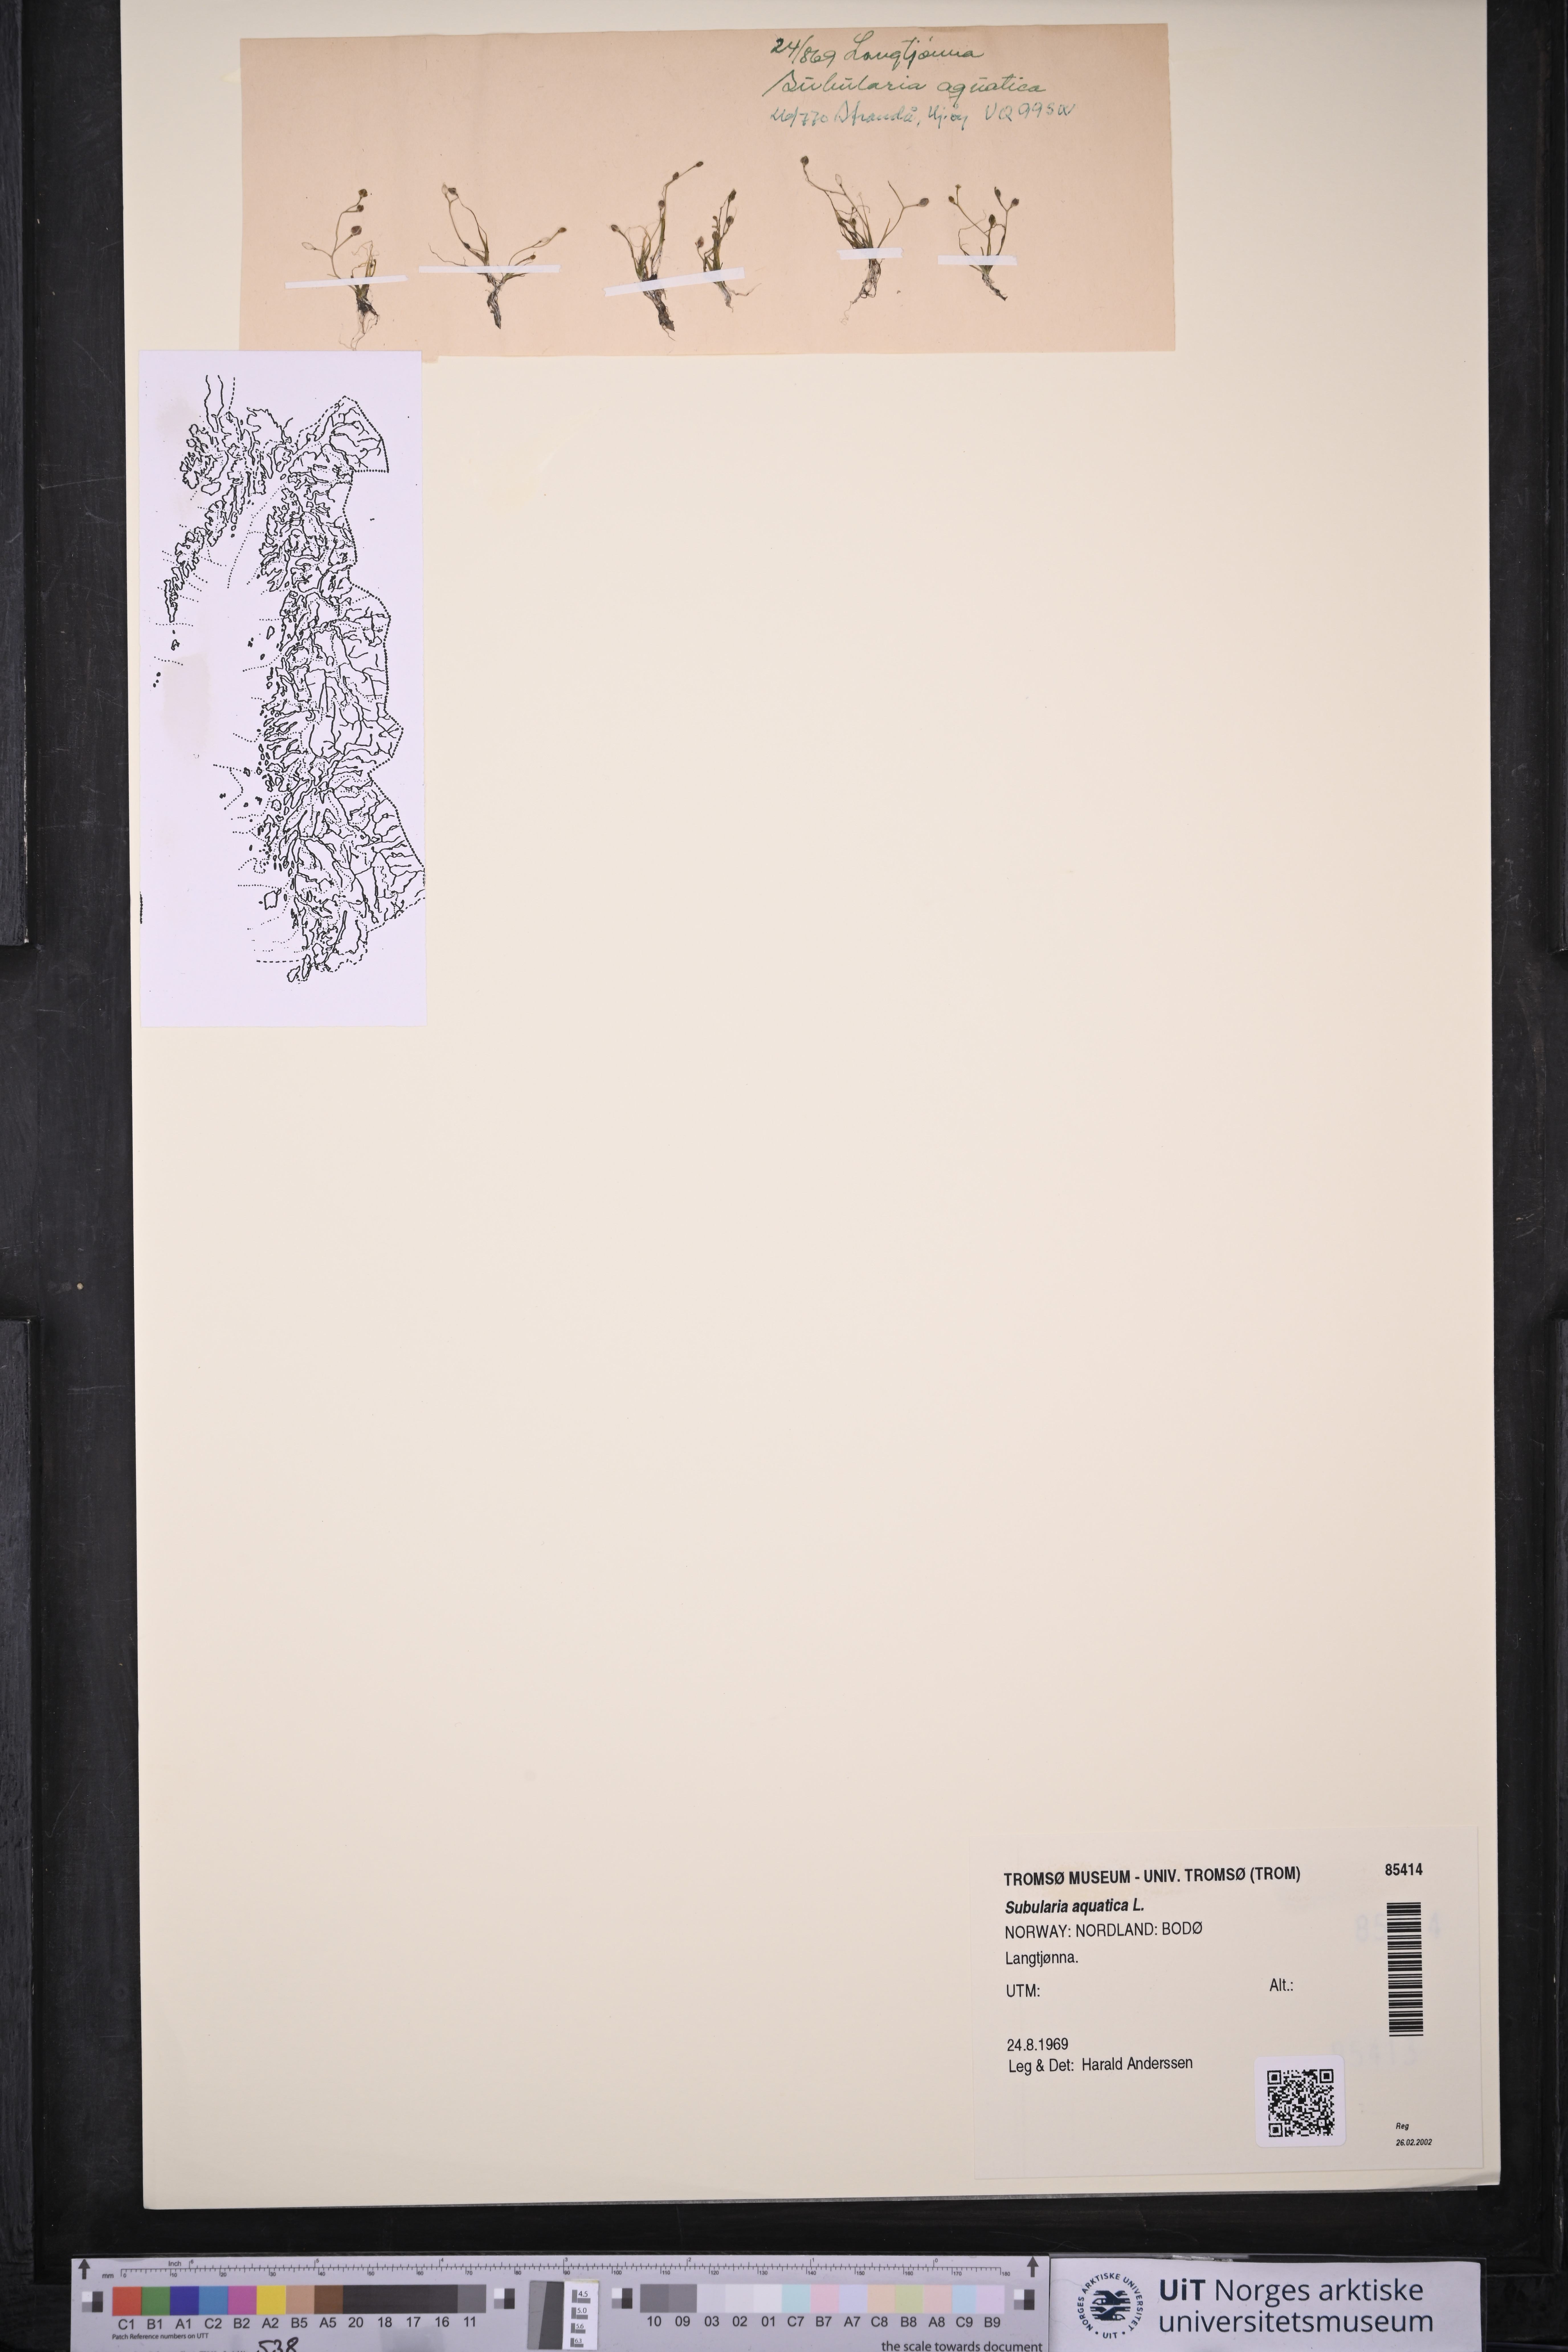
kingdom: Plantae
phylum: Tracheophyta
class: Magnoliopsida
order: Brassicales
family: Brassicaceae
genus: Subularia
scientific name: Subularia aquatica
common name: Awlwort
